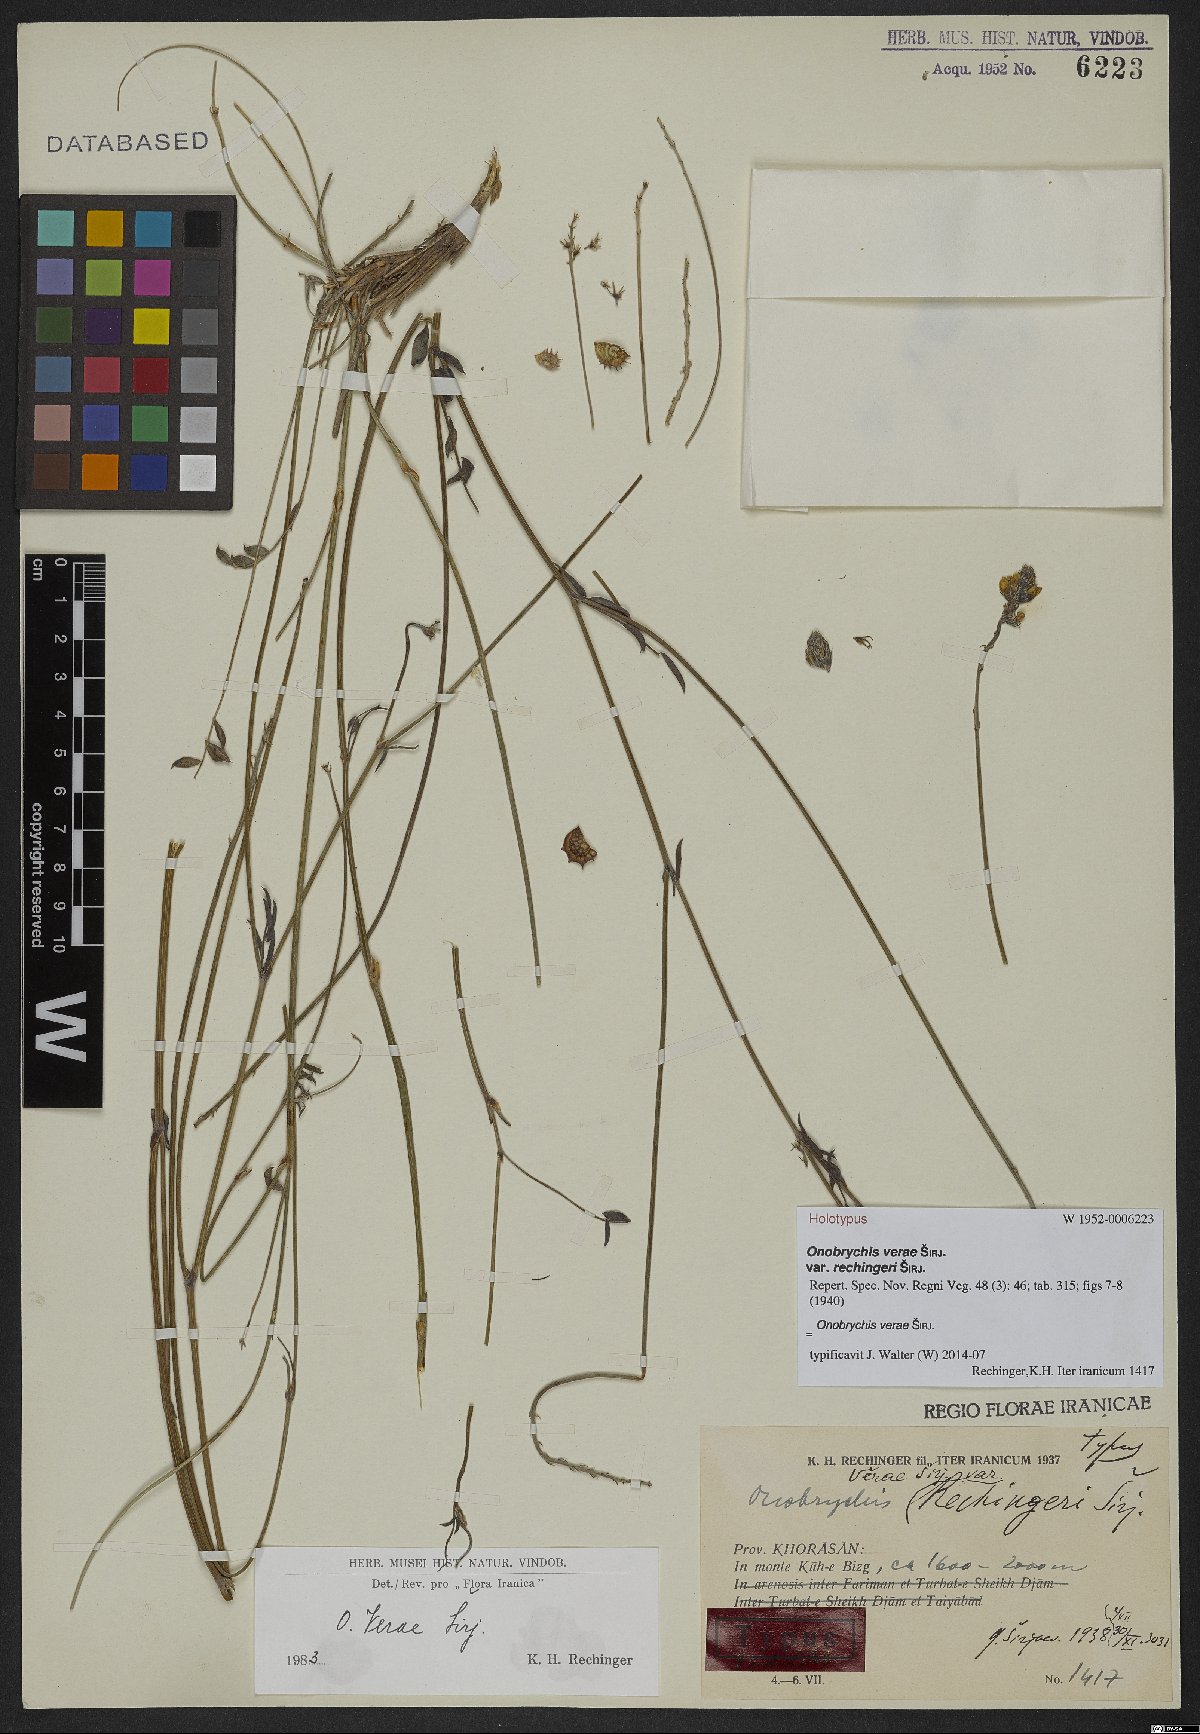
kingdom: Plantae
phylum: Tracheophyta
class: Magnoliopsida
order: Fabales
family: Fabaceae
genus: Onobrychis
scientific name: Onobrychis verae
